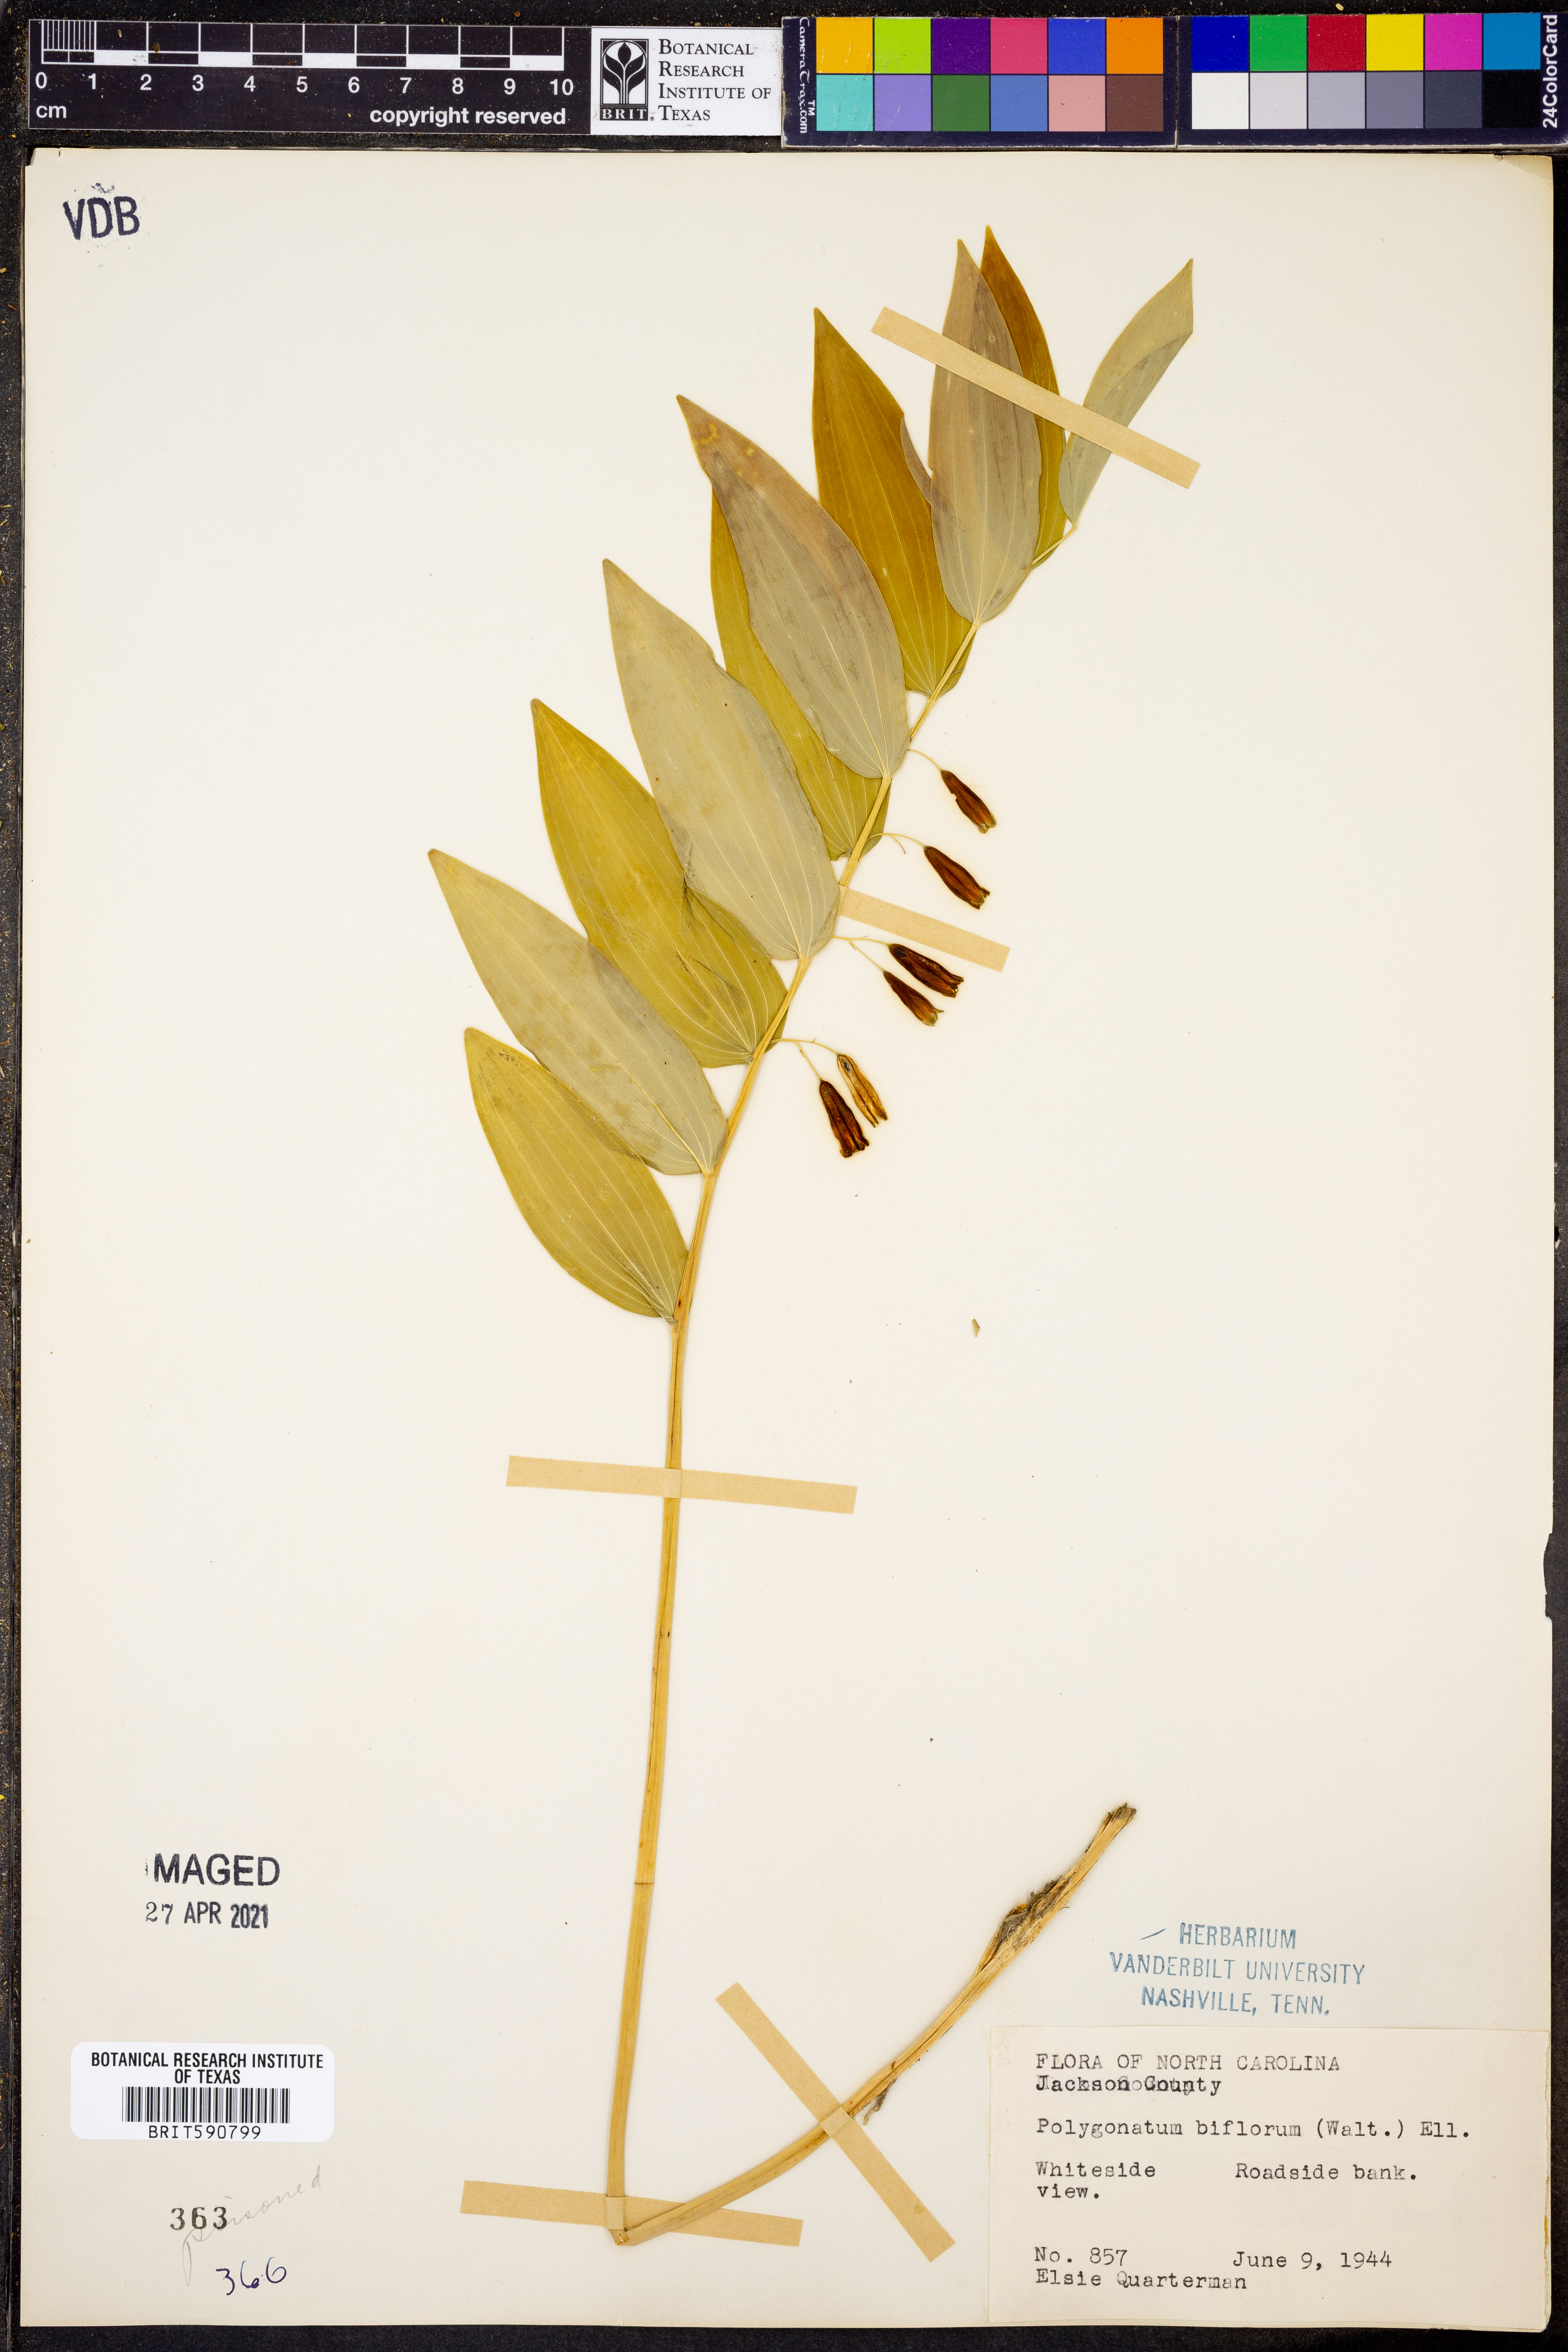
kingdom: Plantae
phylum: Tracheophyta
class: Liliopsida
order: Asparagales
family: Asparagaceae
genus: Polygonatum
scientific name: Polygonatum biflorum
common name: American solomon's-seal
